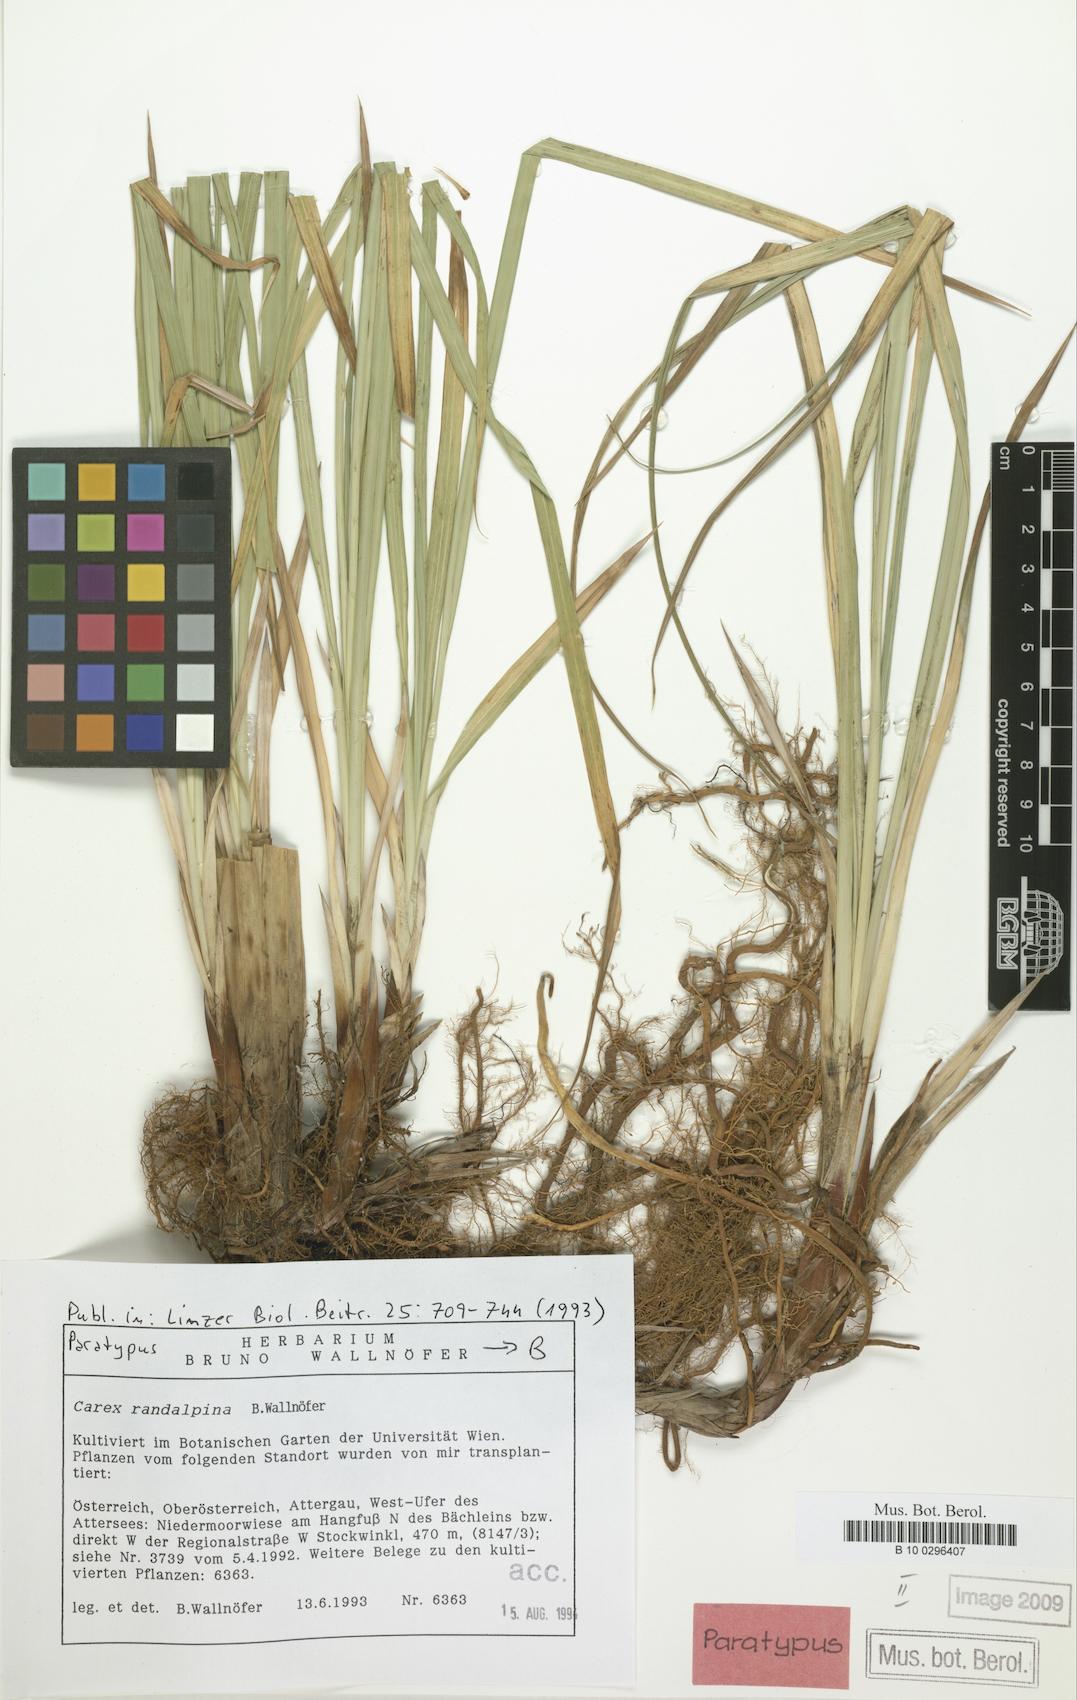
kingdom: Plantae
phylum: Tracheophyta
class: Liliopsida
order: Poales
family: Cyperaceae
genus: Carex
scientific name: Carex randalpina
